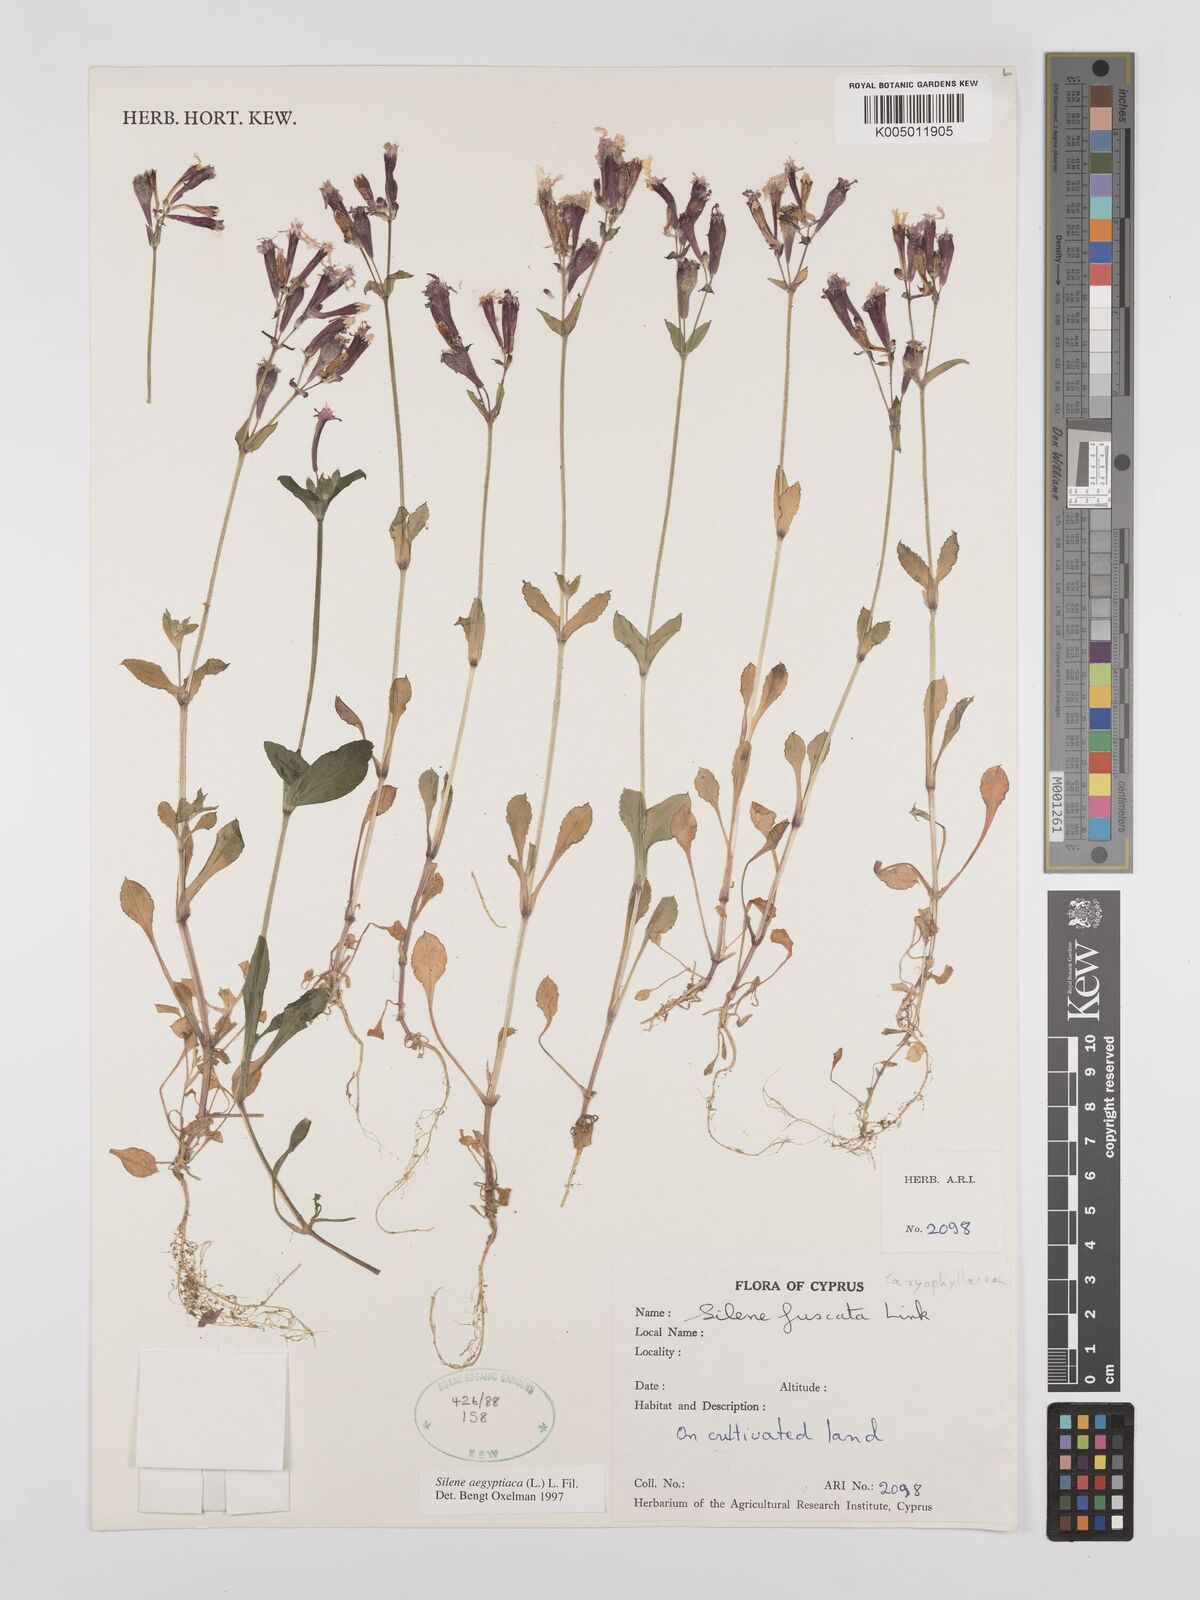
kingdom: Plantae
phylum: Tracheophyta
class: Magnoliopsida
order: Caryophyllales
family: Caryophyllaceae
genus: Silene
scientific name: Silene fuscata
